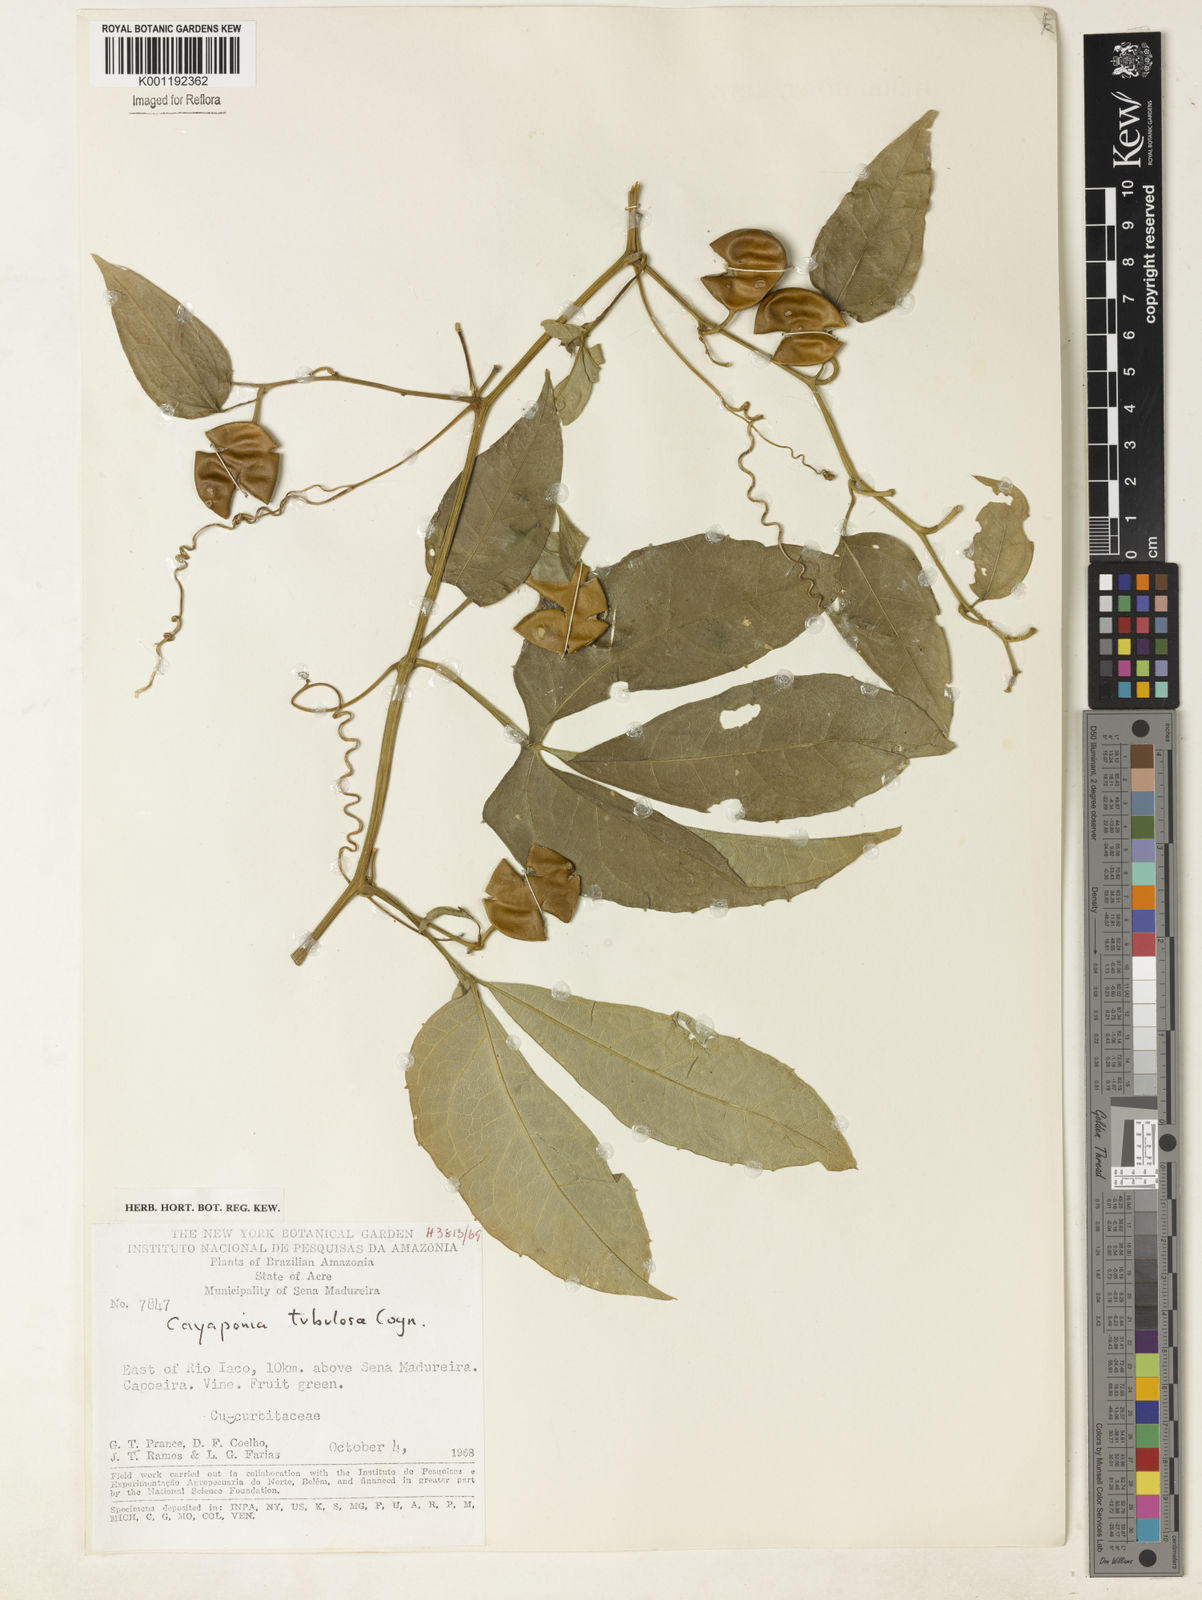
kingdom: Plantae
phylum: Tracheophyta
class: Magnoliopsida
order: Cucurbitales
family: Cucurbitaceae
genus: Cayaponia
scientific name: Cayaponia tubulosa
